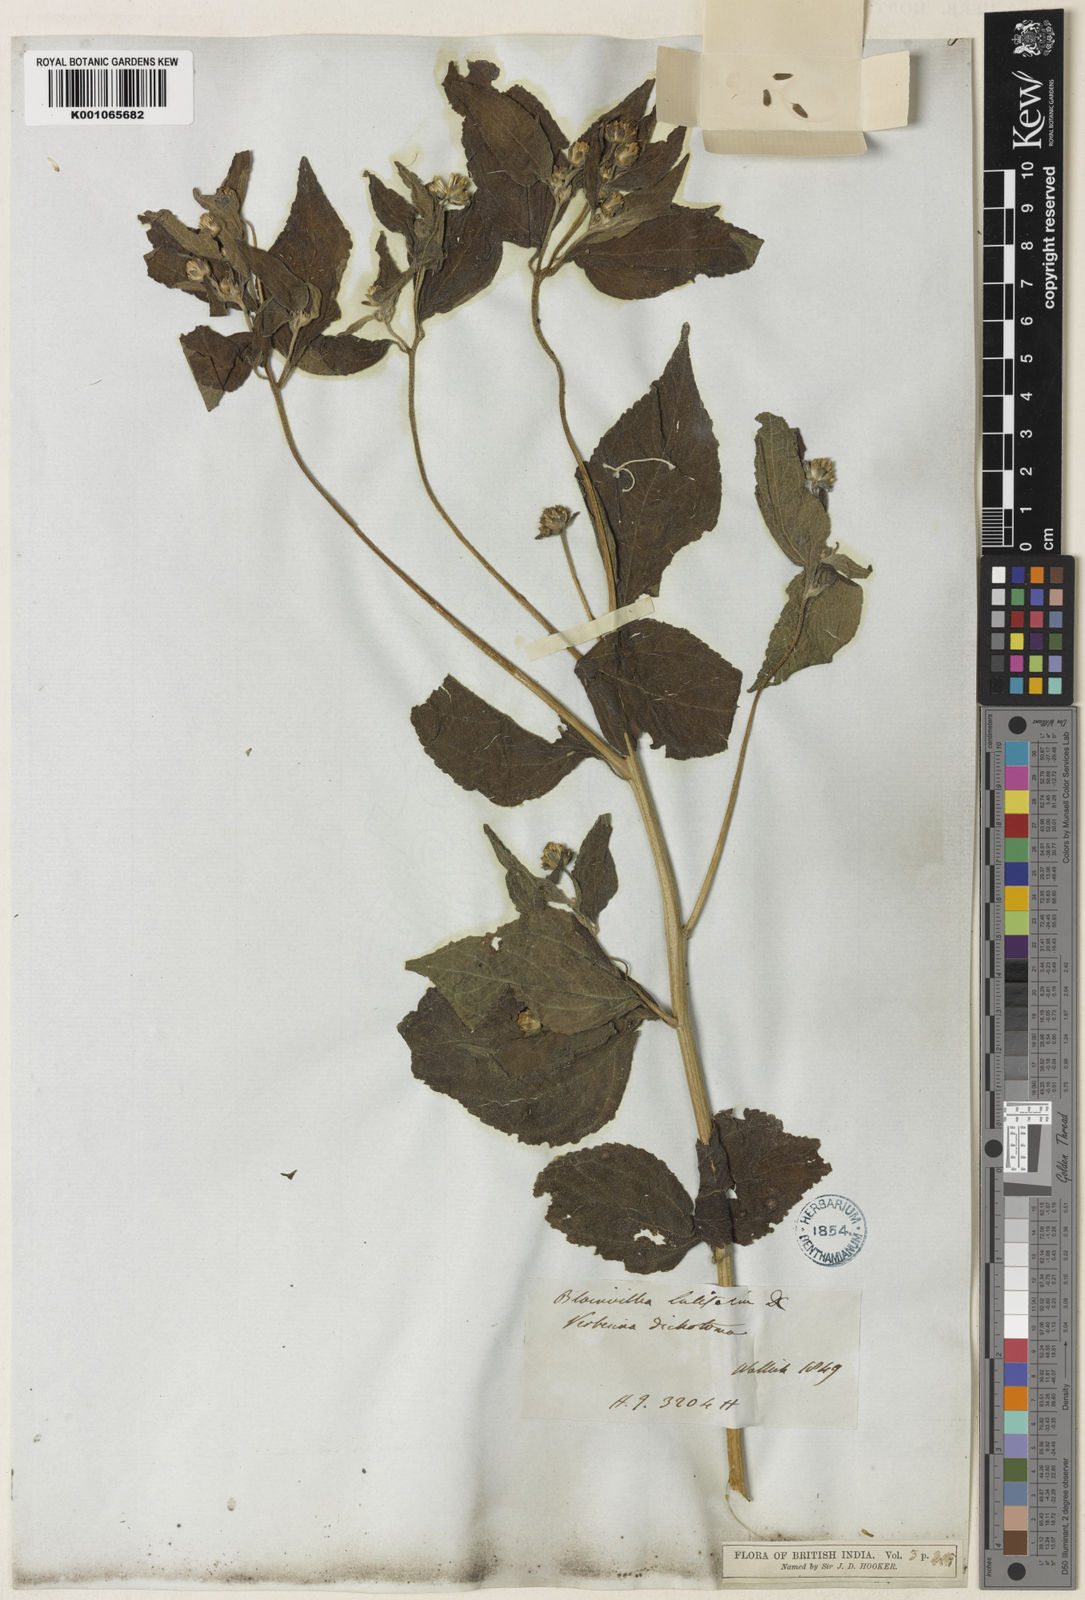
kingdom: Plantae
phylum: Tracheophyta
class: Magnoliopsida
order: Asterales
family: Asteraceae
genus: Blainvillea
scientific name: Blainvillea acmella
